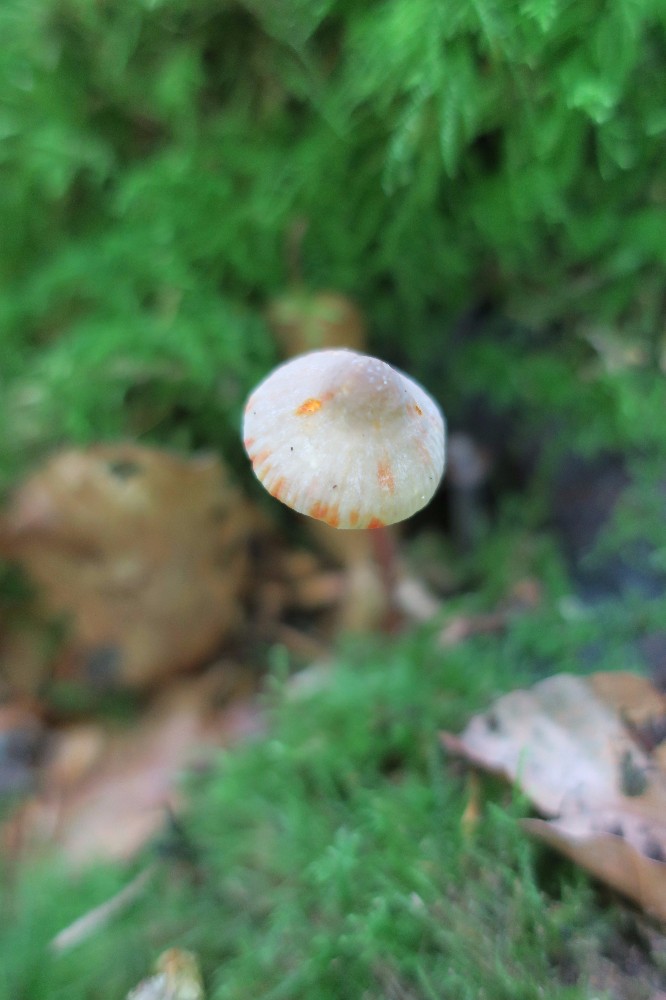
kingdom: Fungi
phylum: Basidiomycota
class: Agaricomycetes
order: Agaricales
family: Mycenaceae
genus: Mycena
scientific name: Mycena crocata
